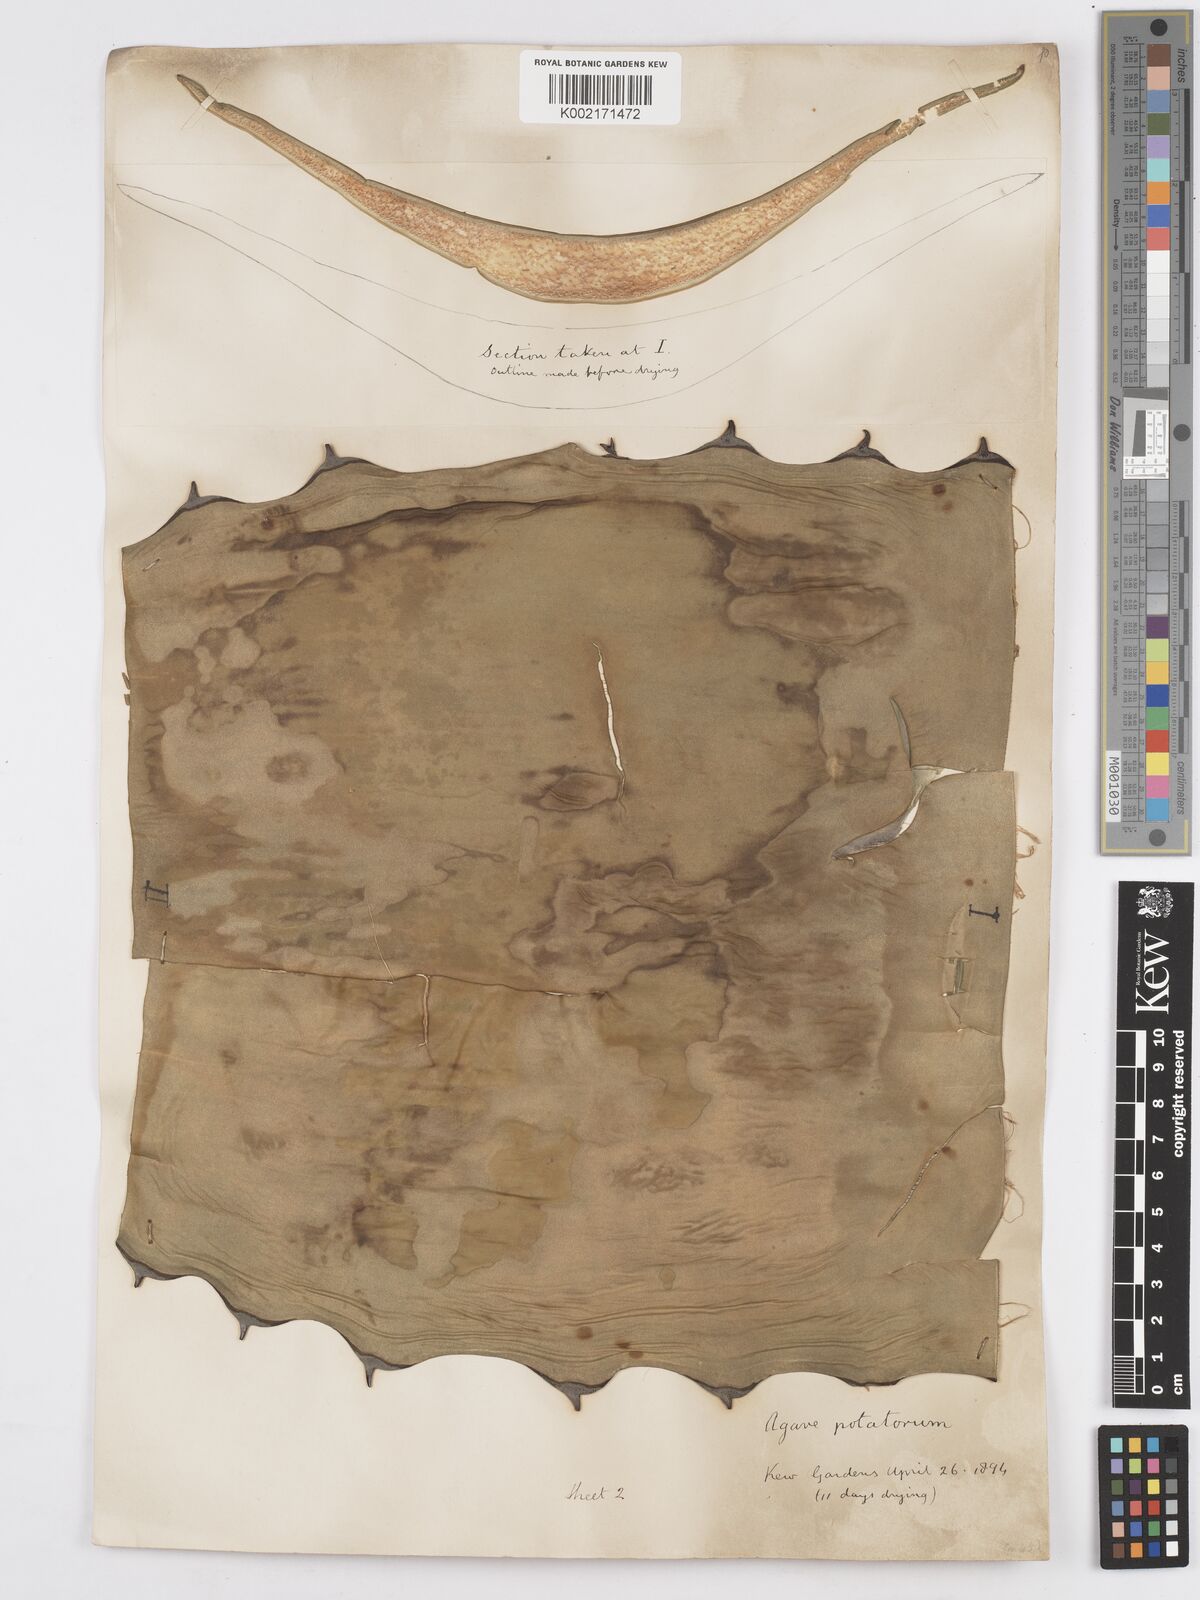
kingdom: Plantae
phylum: Tracheophyta
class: Liliopsida
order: Asparagales
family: Asparagaceae
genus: Agave
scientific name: Agave potatorum
